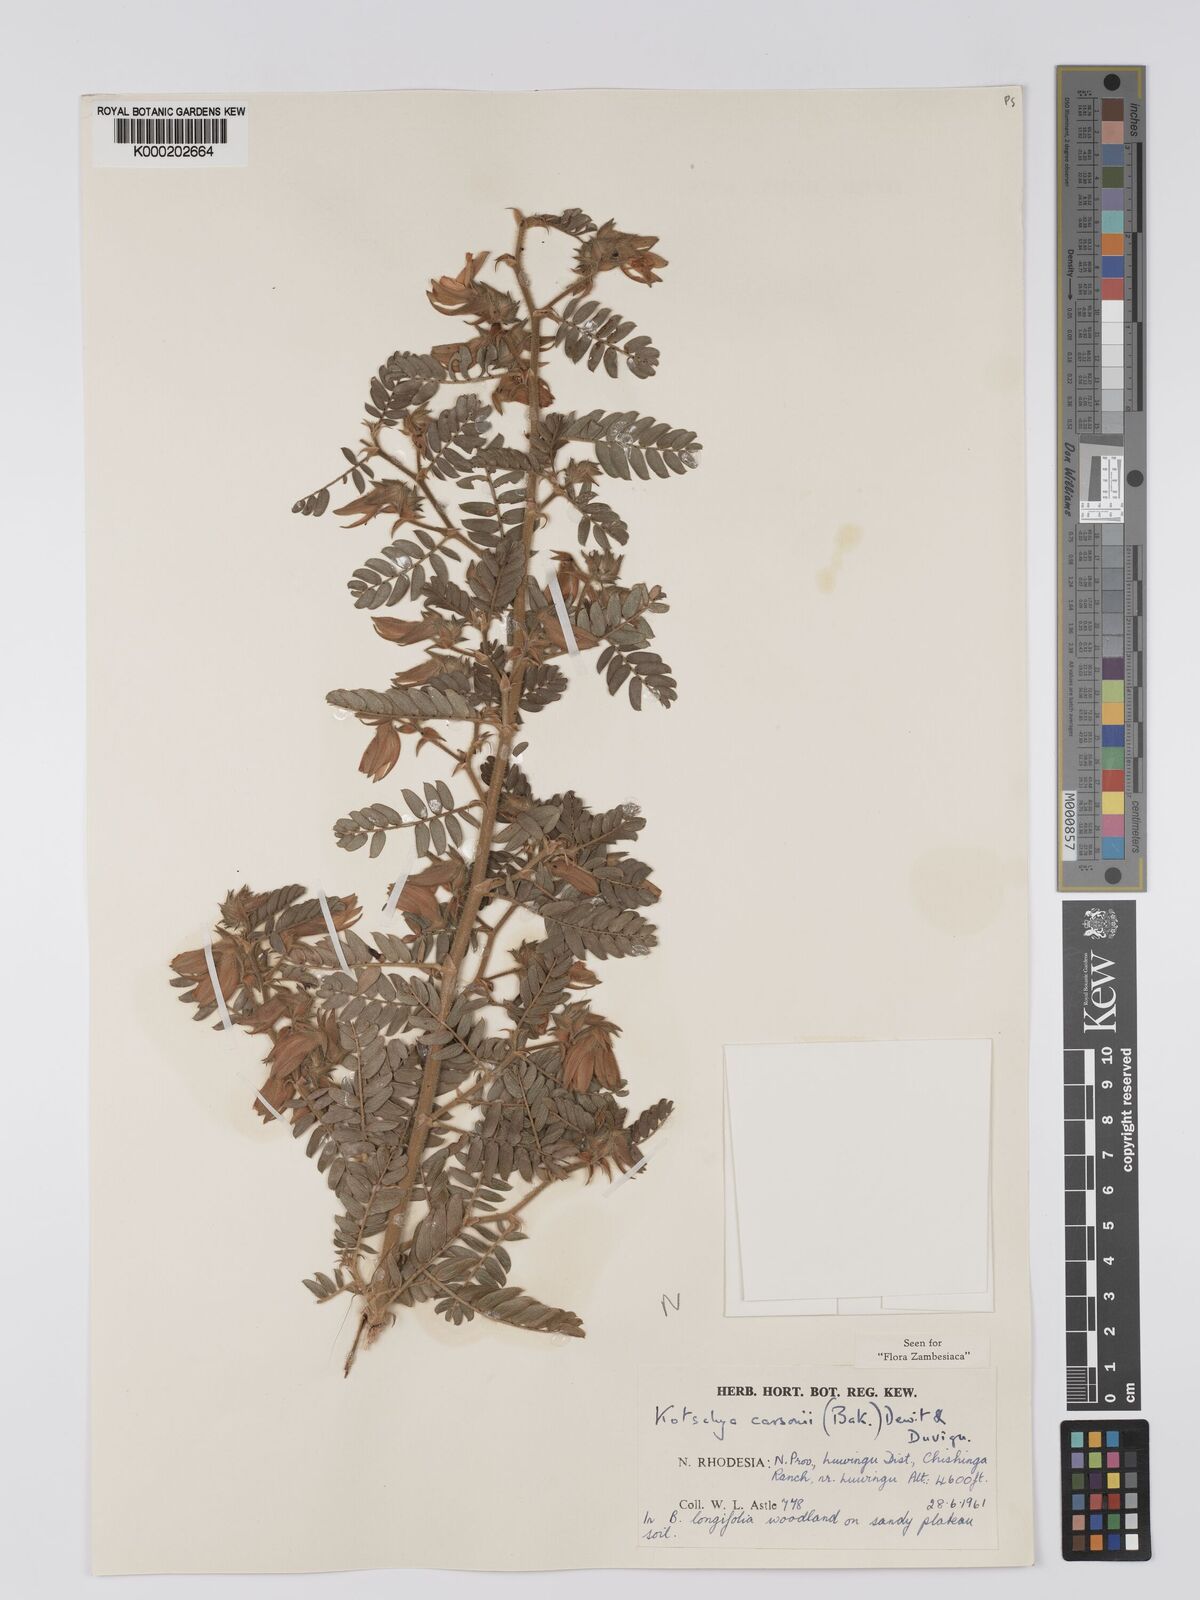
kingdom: Plantae
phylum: Tracheophyta
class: Magnoliopsida
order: Fabales
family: Fabaceae
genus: Kotschya
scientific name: Kotschya carsonii
